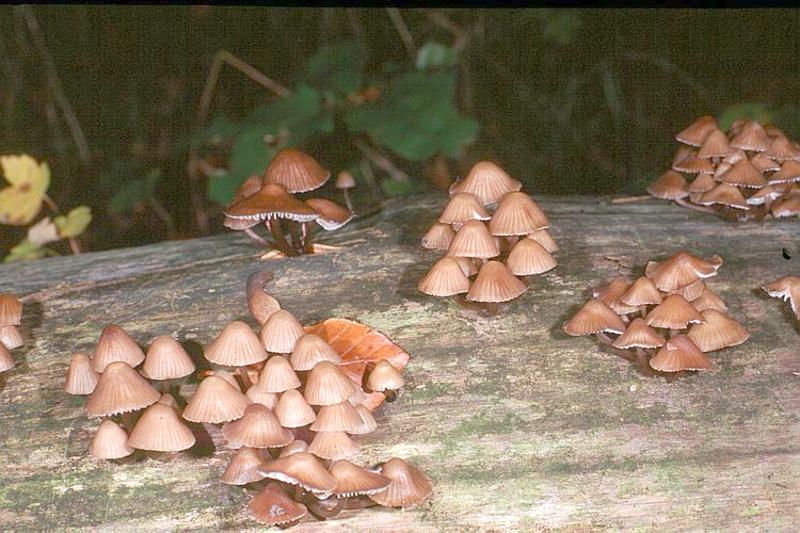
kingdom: Fungi
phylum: Basidiomycota
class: Agaricomycetes
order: Agaricales
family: Mycenaceae
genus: Mycena
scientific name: Mycena stipata
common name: Clustered pine bonnet
